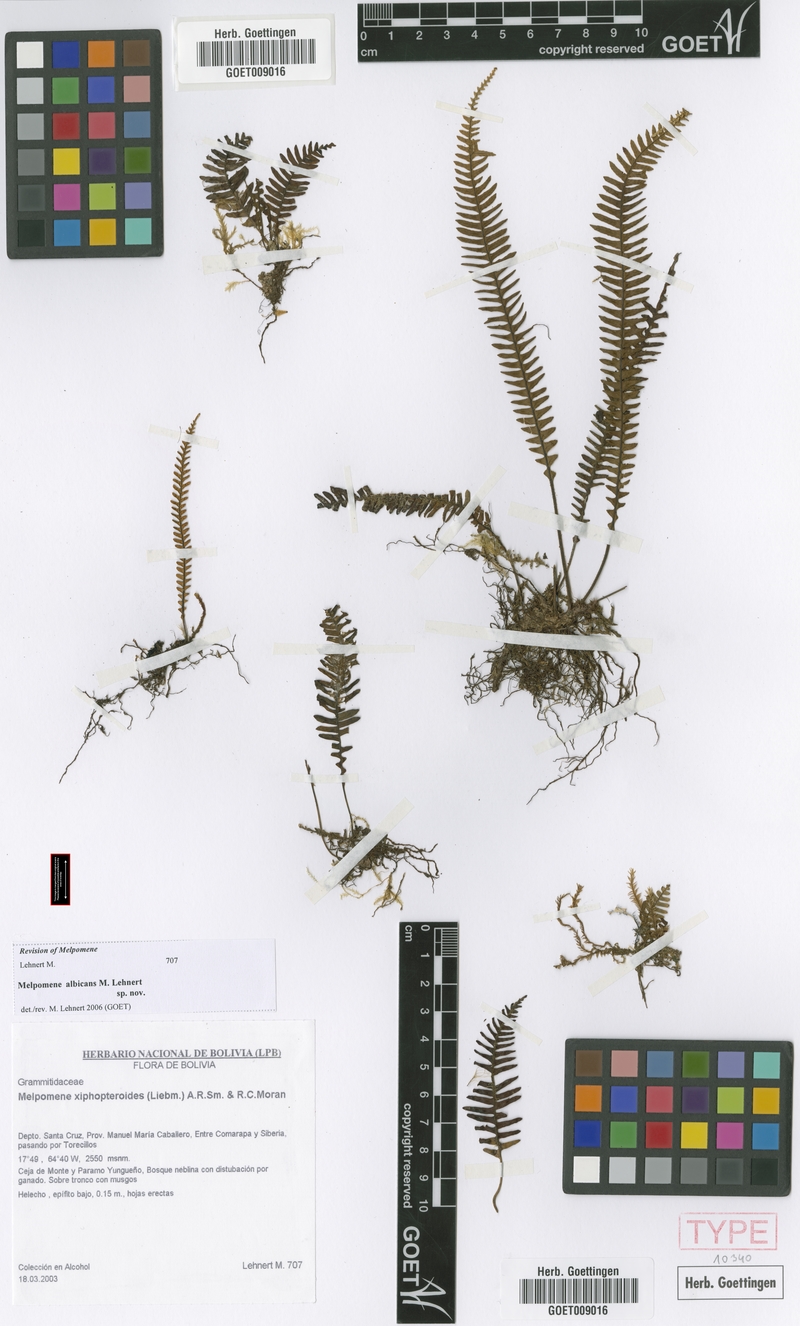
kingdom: Plantae
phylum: Tracheophyta
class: Polypodiopsida
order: Polypodiales
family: Polypodiaceae
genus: Melpomene
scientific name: Melpomene albicans
